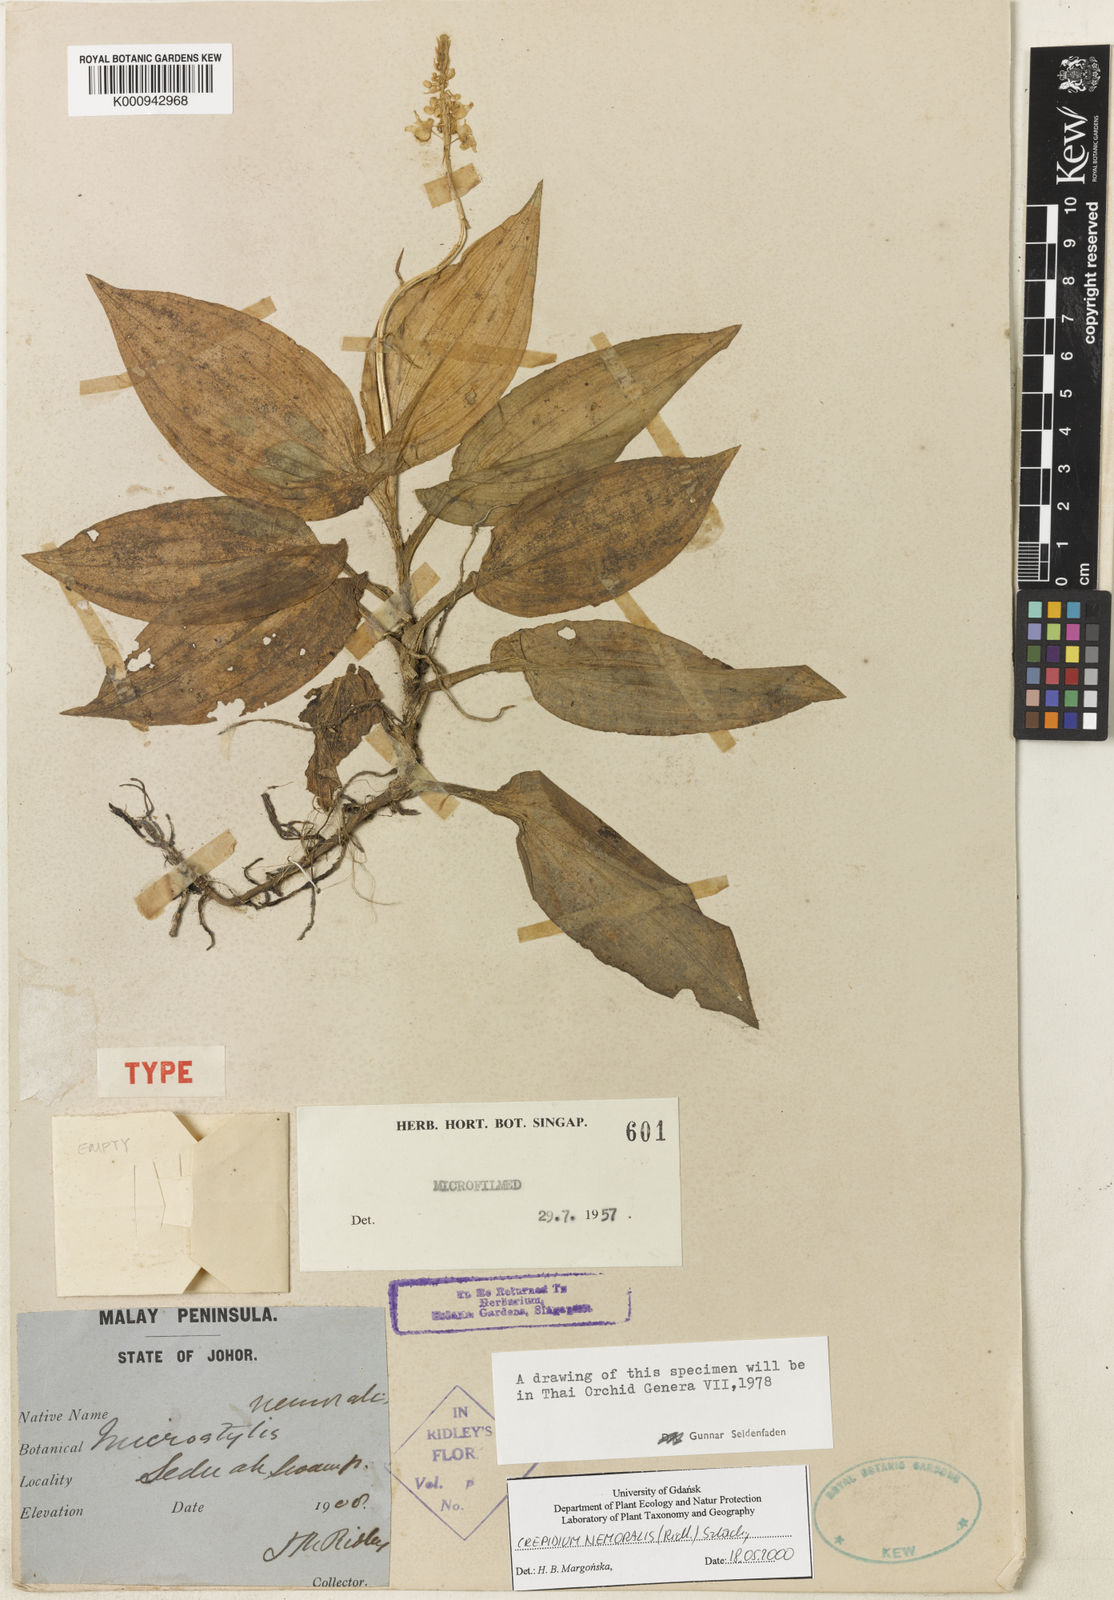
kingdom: Plantae
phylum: Tracheophyta
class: Liliopsida
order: Asparagales
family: Orchidaceae
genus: Crepidium
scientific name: Crepidium nemorale
